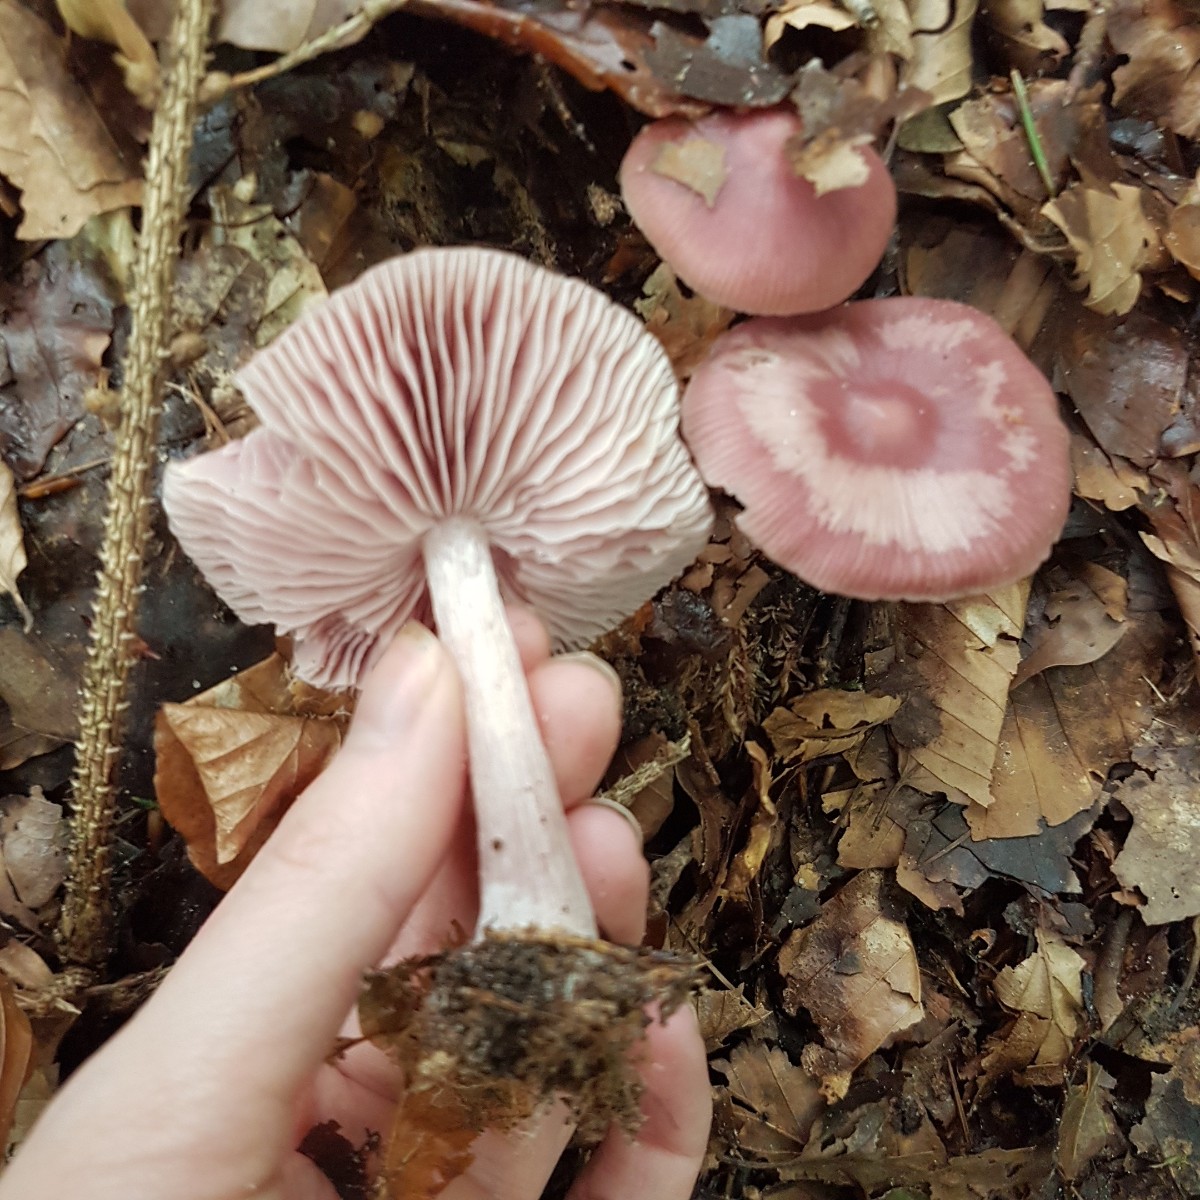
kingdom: Fungi
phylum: Basidiomycota
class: Agaricomycetes
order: Agaricales
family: Mycenaceae
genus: Mycena
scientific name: Mycena rosea
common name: rosa huesvamp
